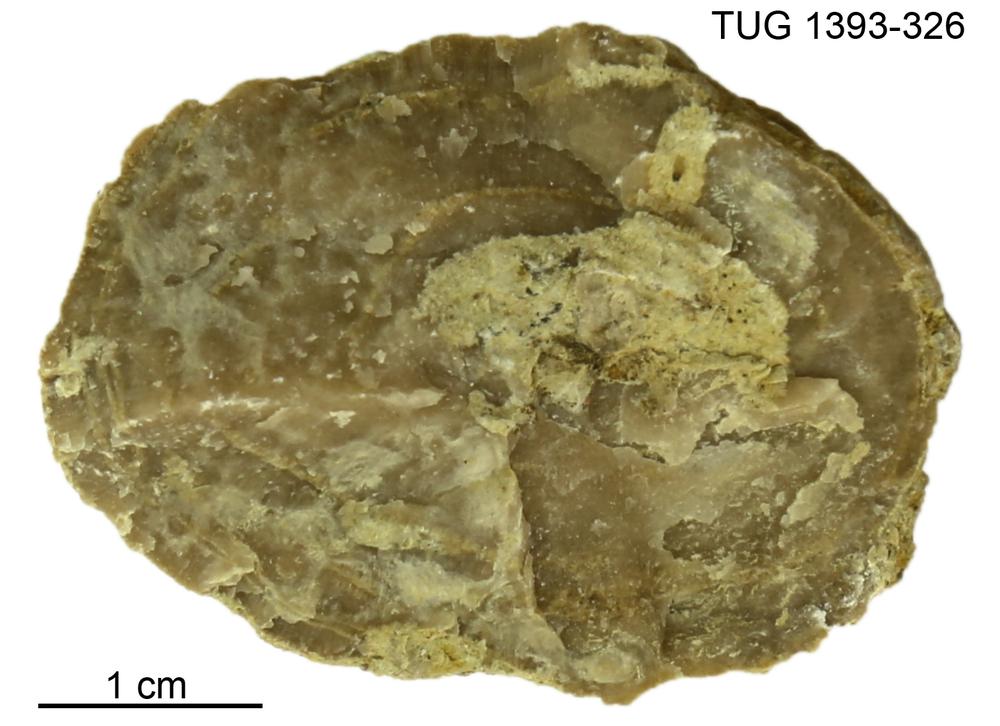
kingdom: Animalia
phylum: Bryozoa
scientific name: Bryozoa
